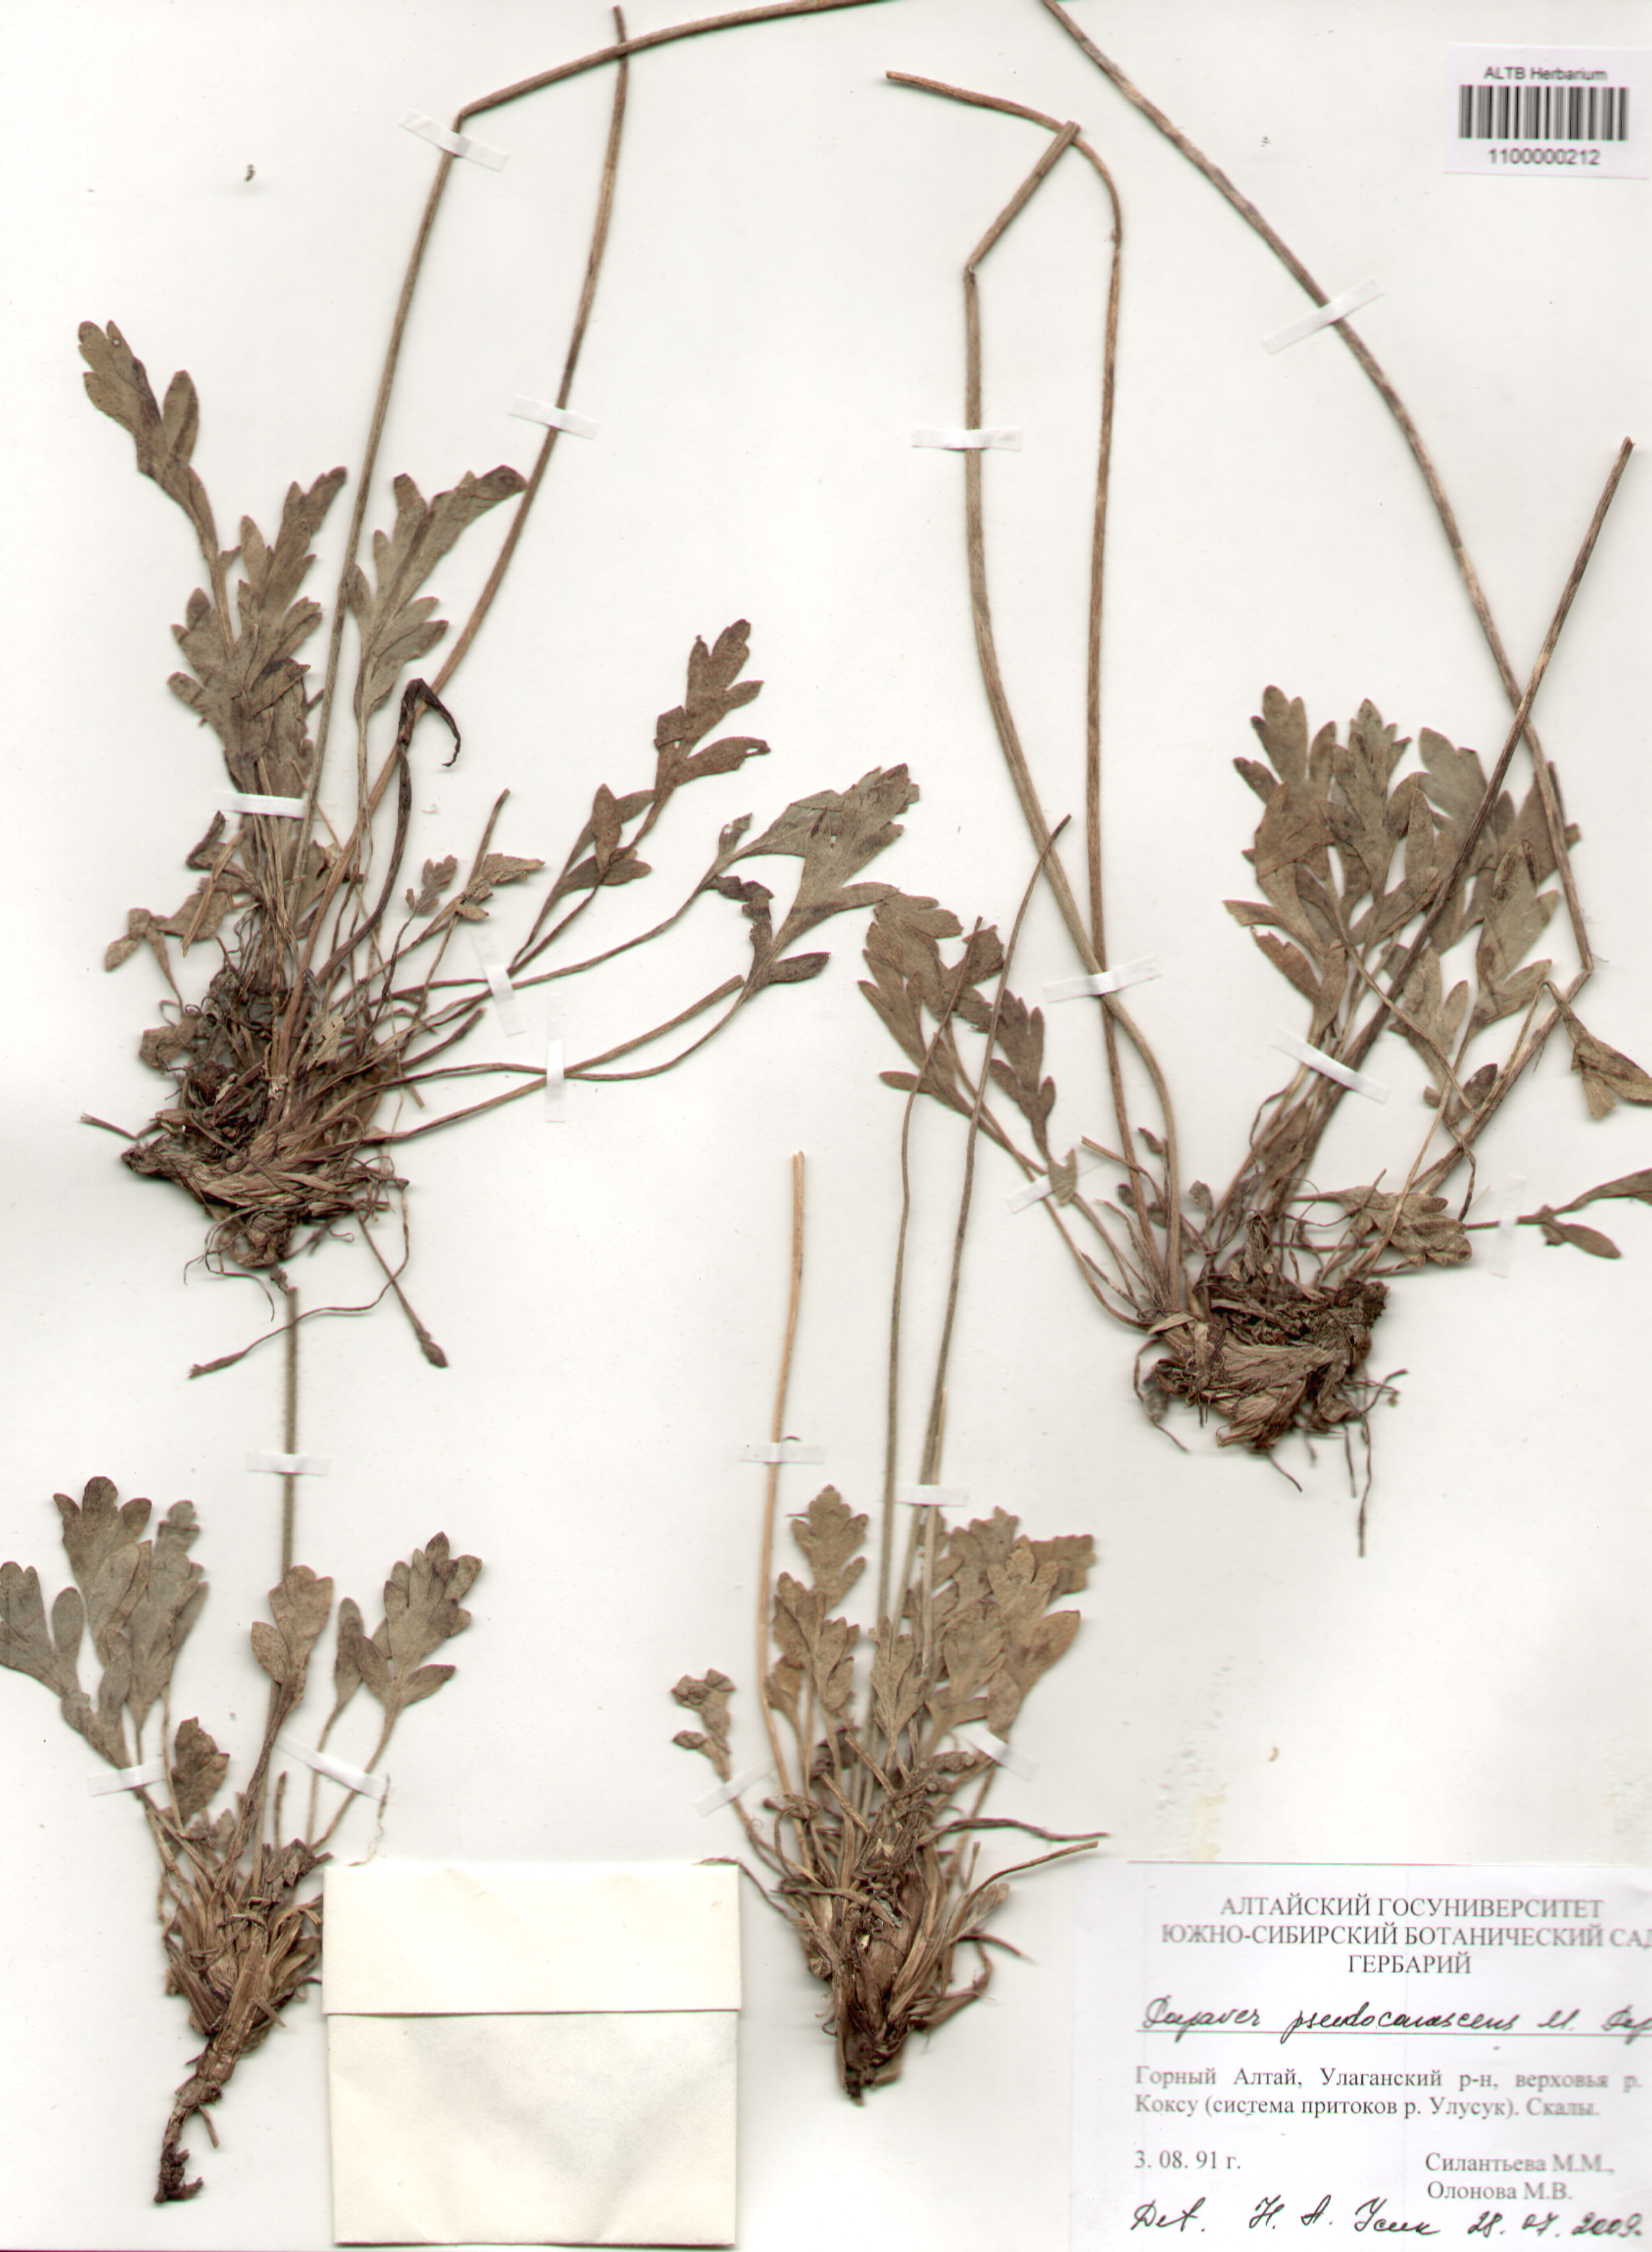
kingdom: Plantae
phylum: Tracheophyta
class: Magnoliopsida
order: Ranunculales
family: Papaveraceae
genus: Papaver
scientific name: Papaver canescens
